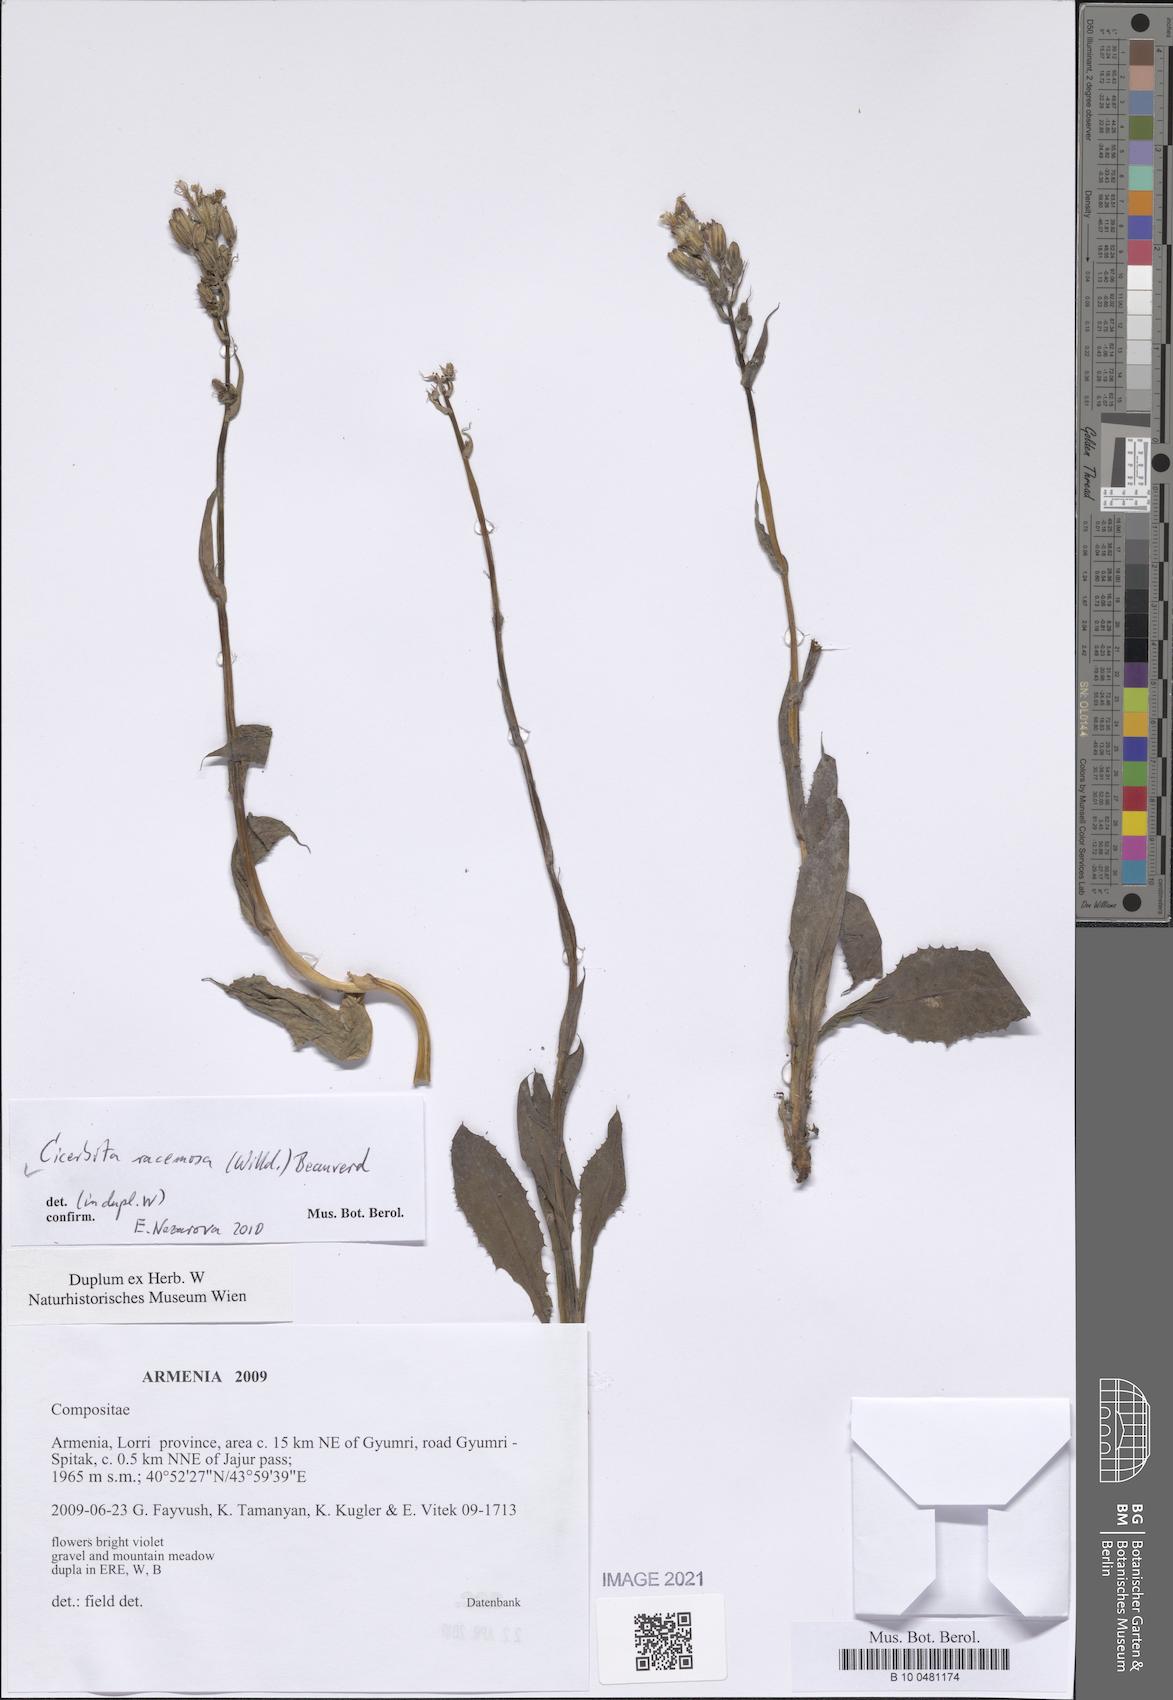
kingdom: Plantae
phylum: Tracheophyta
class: Magnoliopsida
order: Asterales
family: Asteraceae
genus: Lactuca
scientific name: Lactuca racemosa
